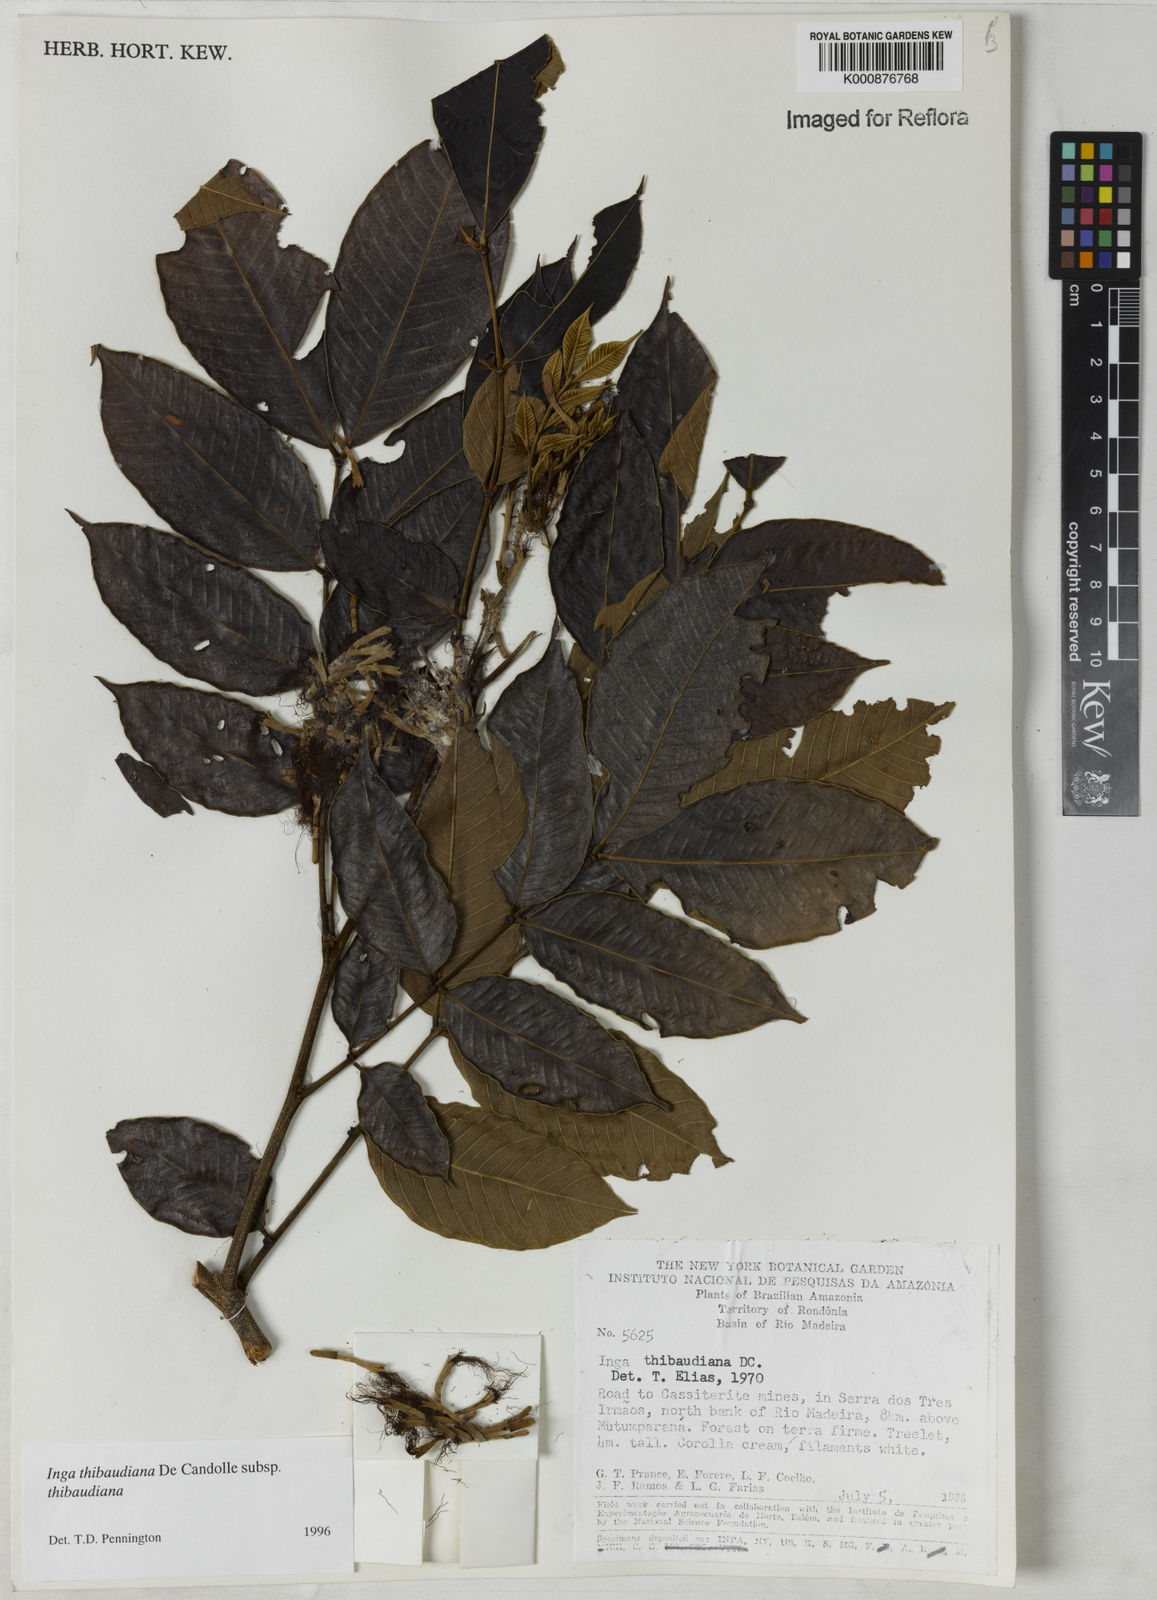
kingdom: Plantae
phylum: Tracheophyta
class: Magnoliopsida
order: Fabales
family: Fabaceae
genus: Inga
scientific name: Inga thibaudiana
